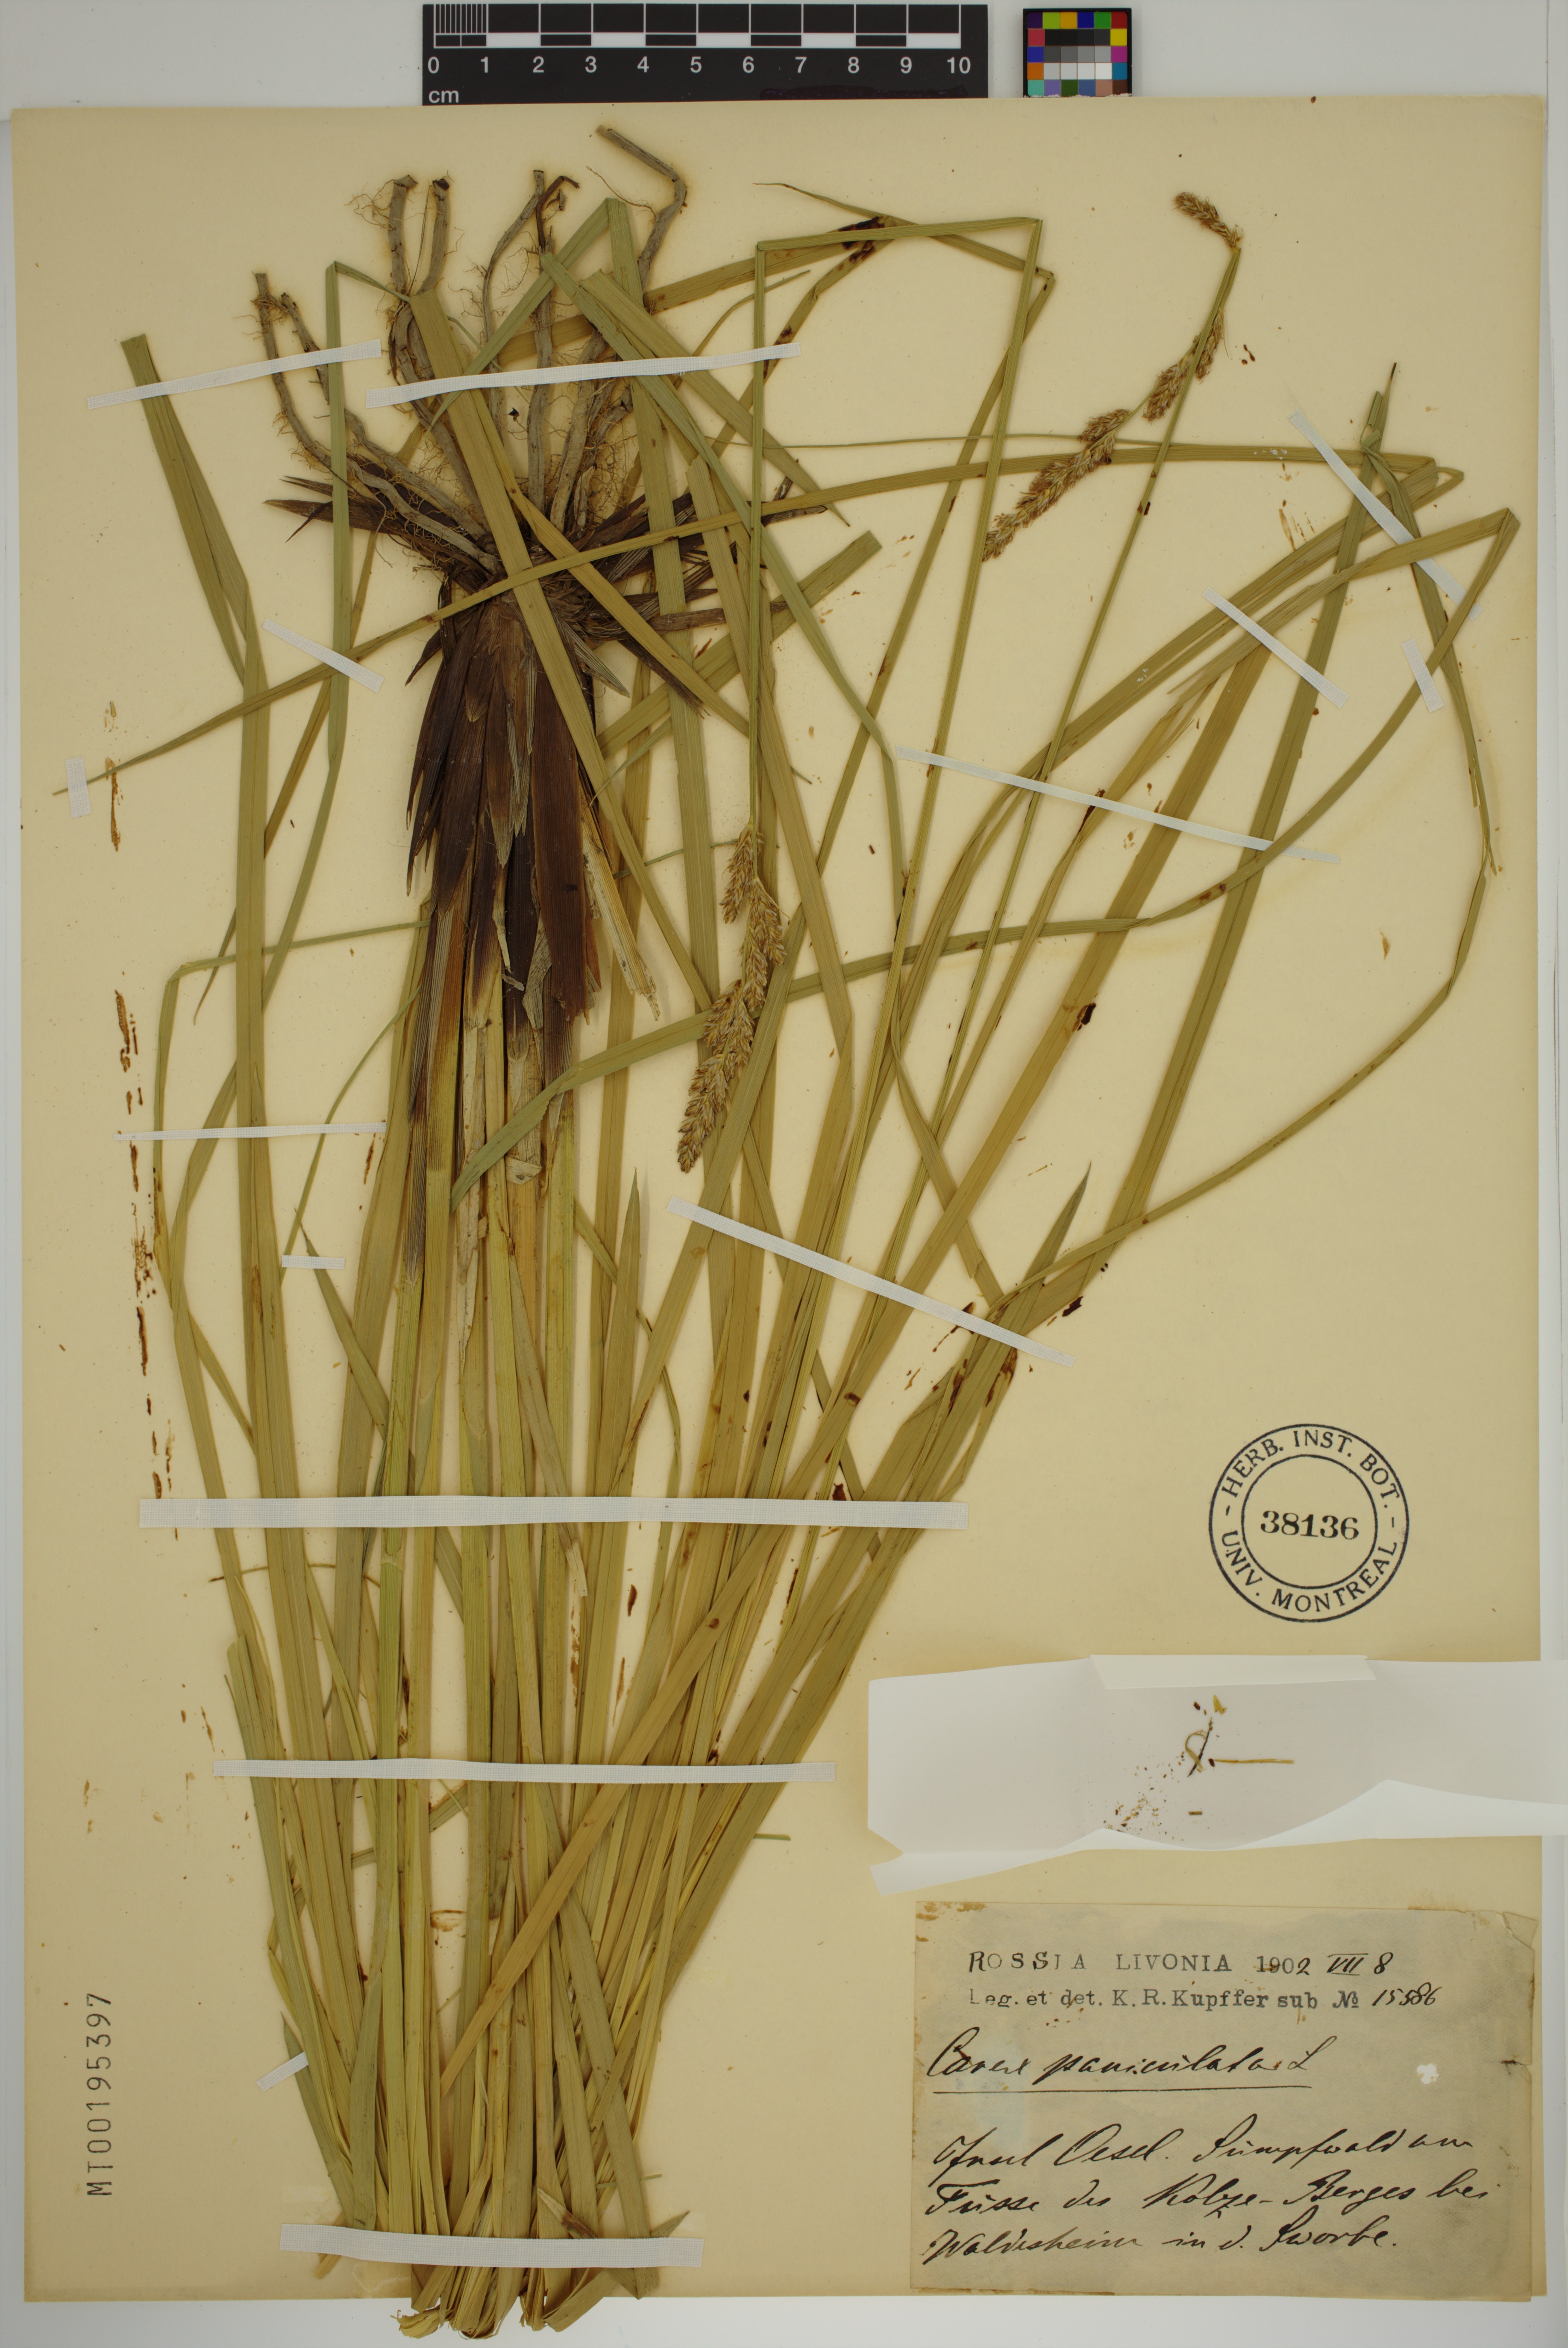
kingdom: Plantae
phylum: Tracheophyta
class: Liliopsida
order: Poales
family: Cyperaceae
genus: Carex
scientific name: Carex paniculata
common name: Greater tussock-sedge
